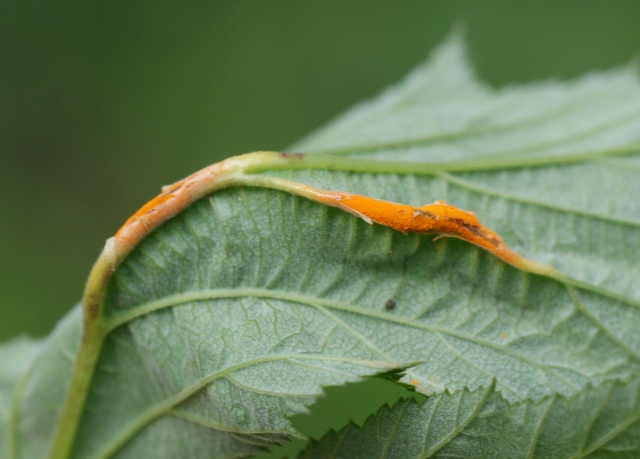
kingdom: Fungi
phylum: Basidiomycota
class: Pucciniomycetes
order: Pucciniales
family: Raveneliaceae
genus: Triphragmium
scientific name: Triphragmium ulmariae
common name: almindelig mjødurtrust
